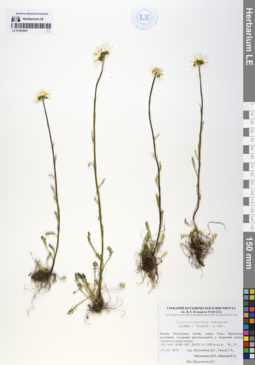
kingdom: Plantae
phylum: Tracheophyta
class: Magnoliopsida
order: Asterales
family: Asteraceae
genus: Tripleurospermum
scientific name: Tripleurospermum ambiguum
